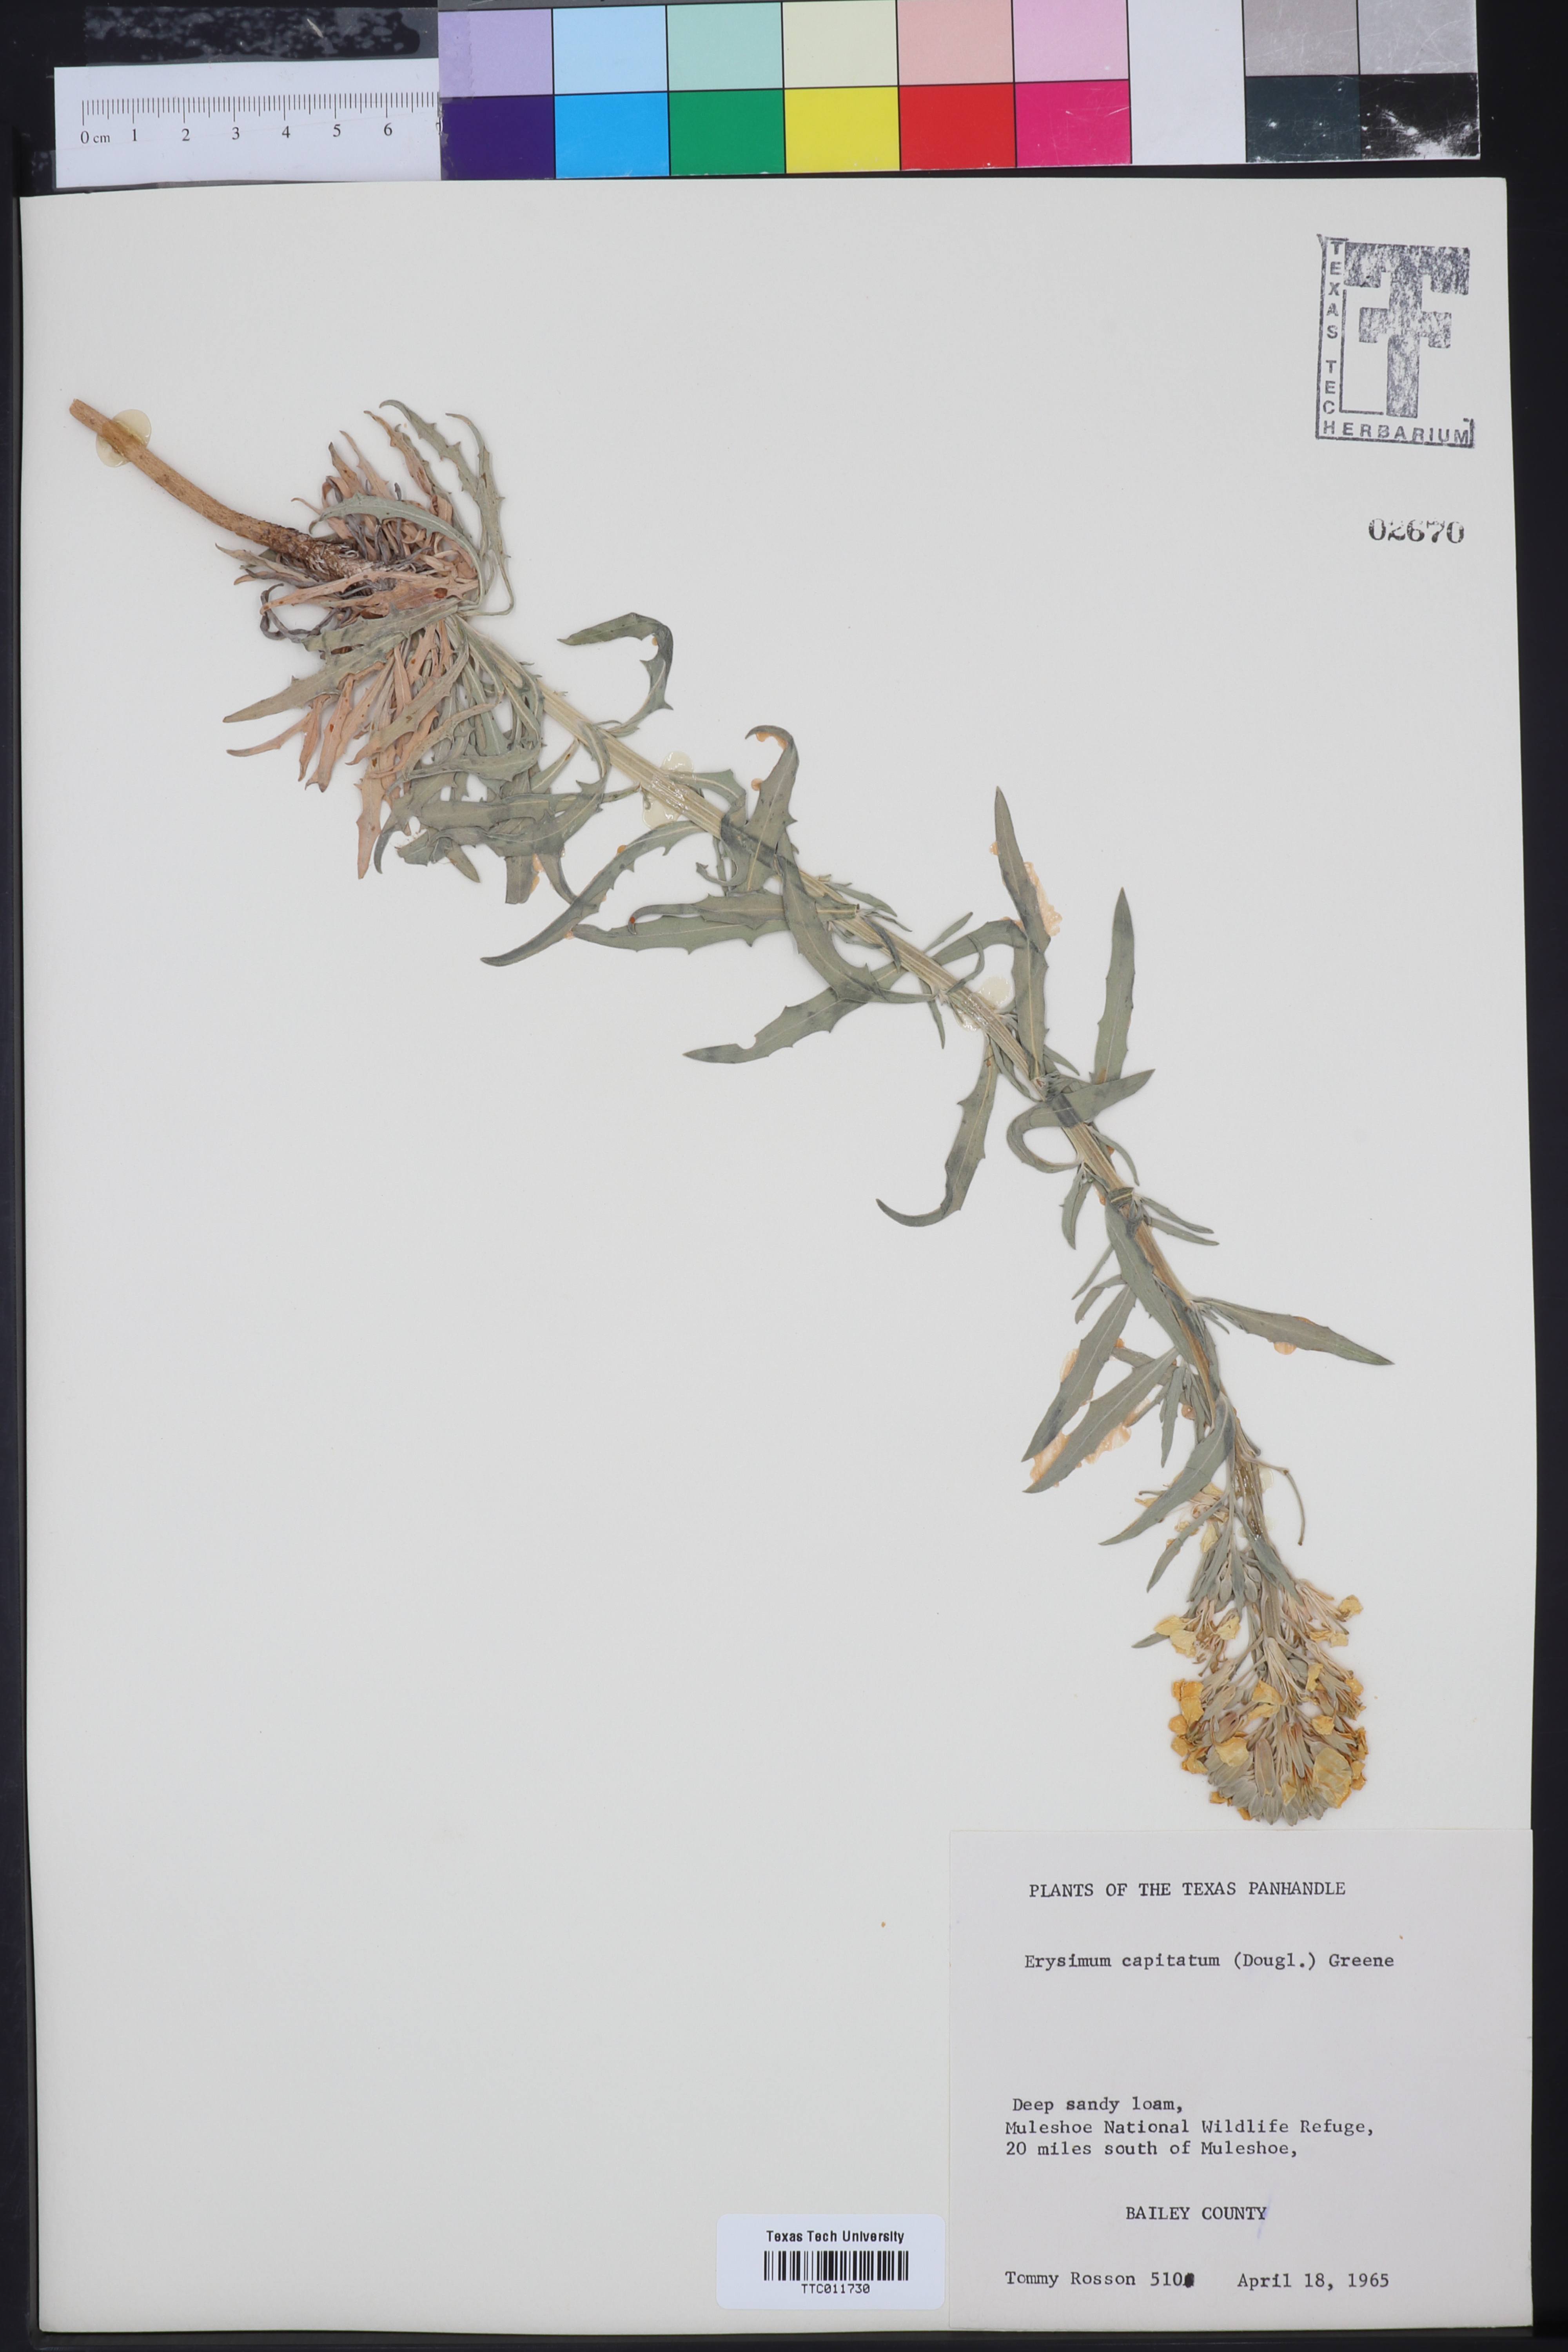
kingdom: Plantae
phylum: Tracheophyta
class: Magnoliopsida
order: Brassicales
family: Brassicaceae
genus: Erysimum
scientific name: Erysimum capitatum
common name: Western wallflower
